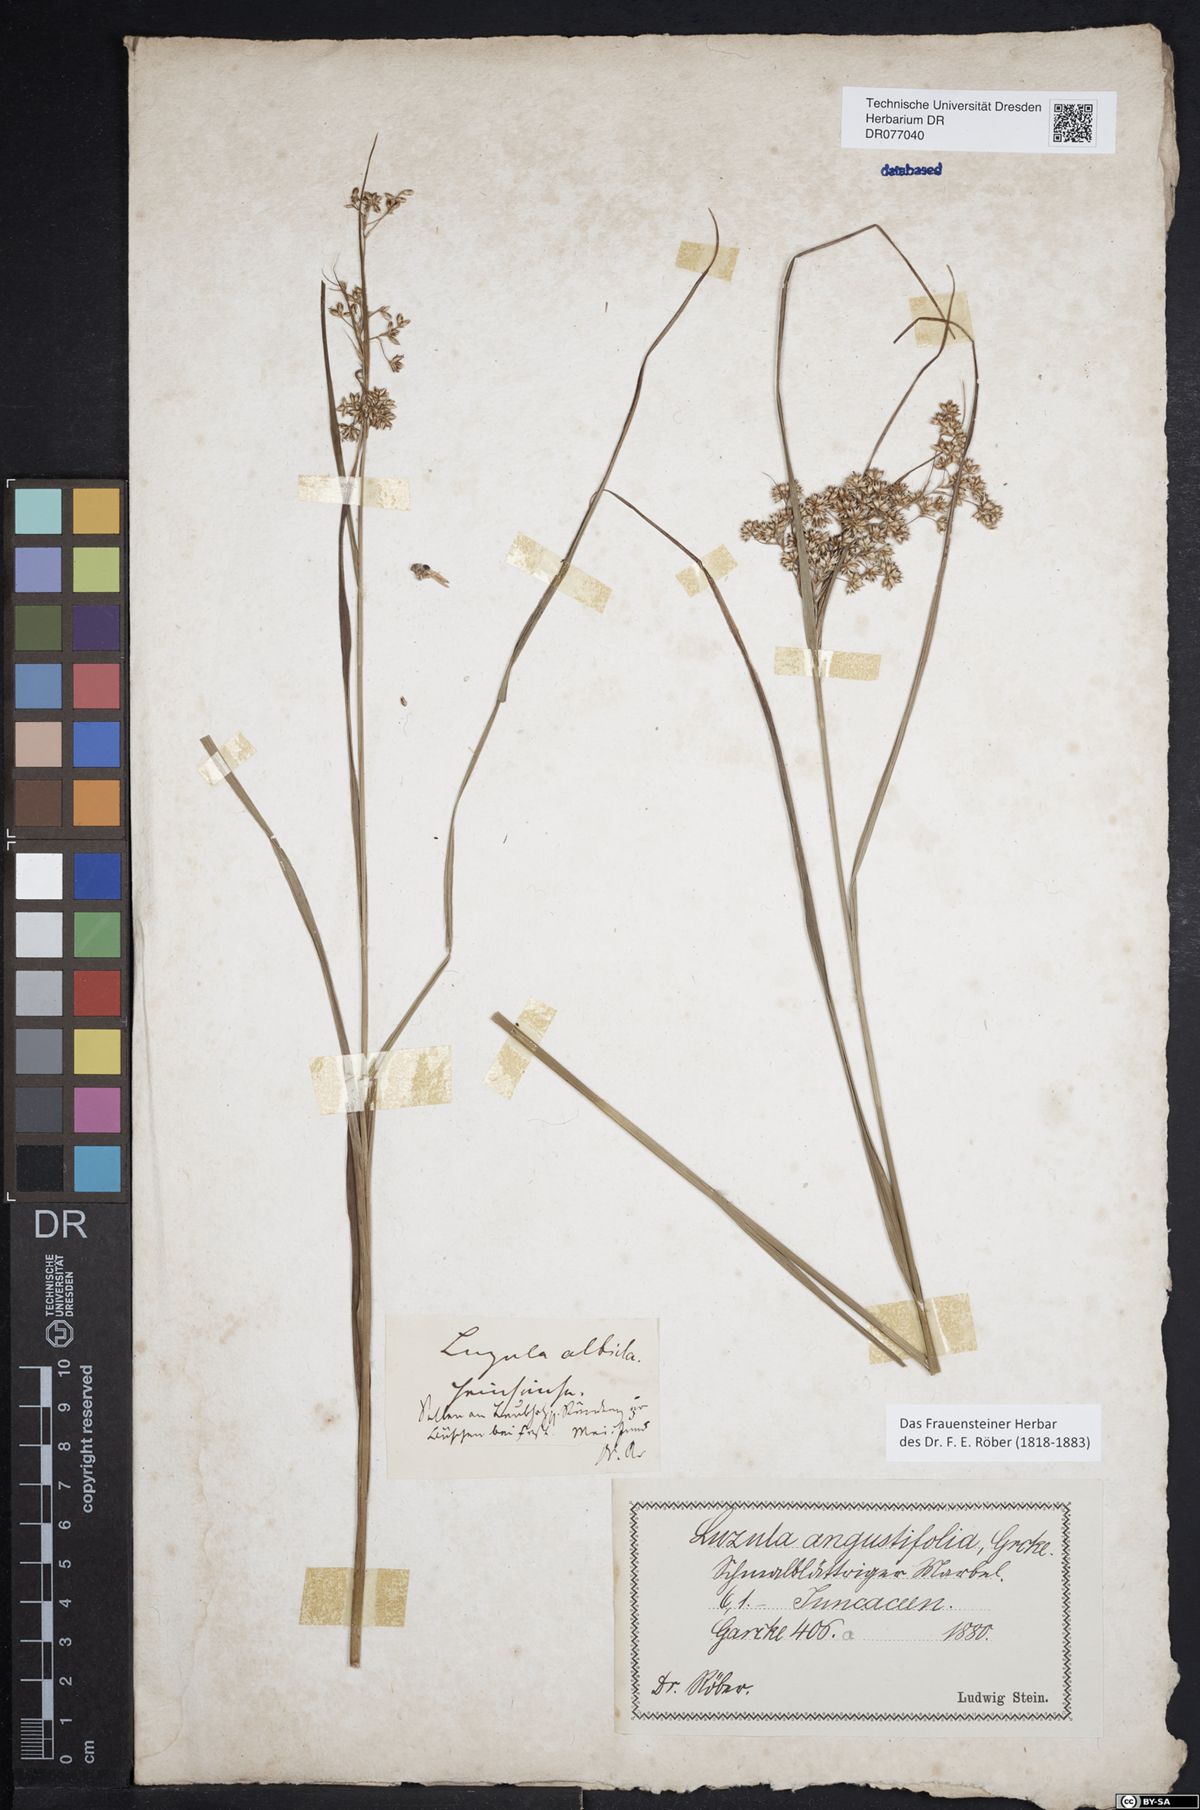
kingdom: Plantae
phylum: Tracheophyta
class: Liliopsida
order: Poales
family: Juncaceae
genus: Luzula
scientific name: Luzula luzuloides
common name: White wood-rush
